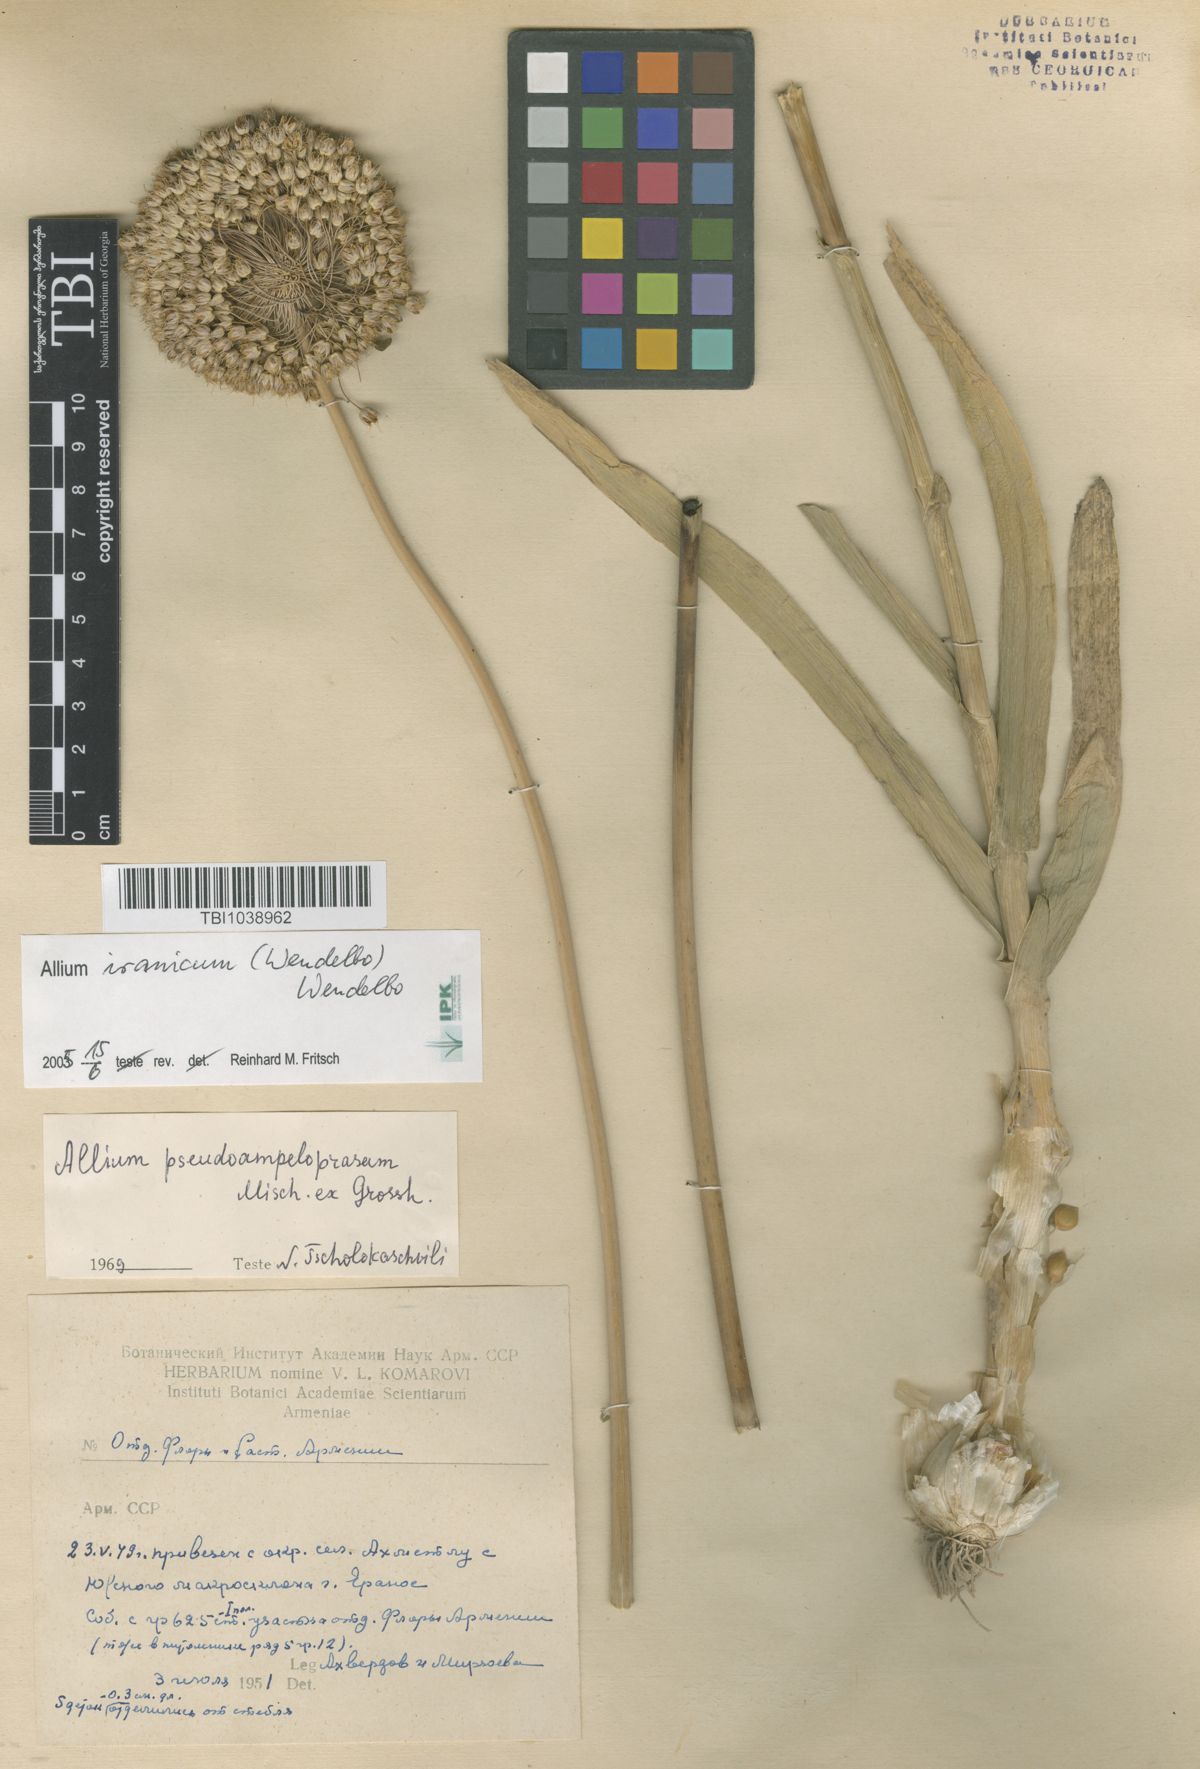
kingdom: Plantae
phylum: Tracheophyta
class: Liliopsida
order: Asparagales
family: Amaryllidaceae
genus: Allium
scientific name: Allium pseudoampeloprasum
